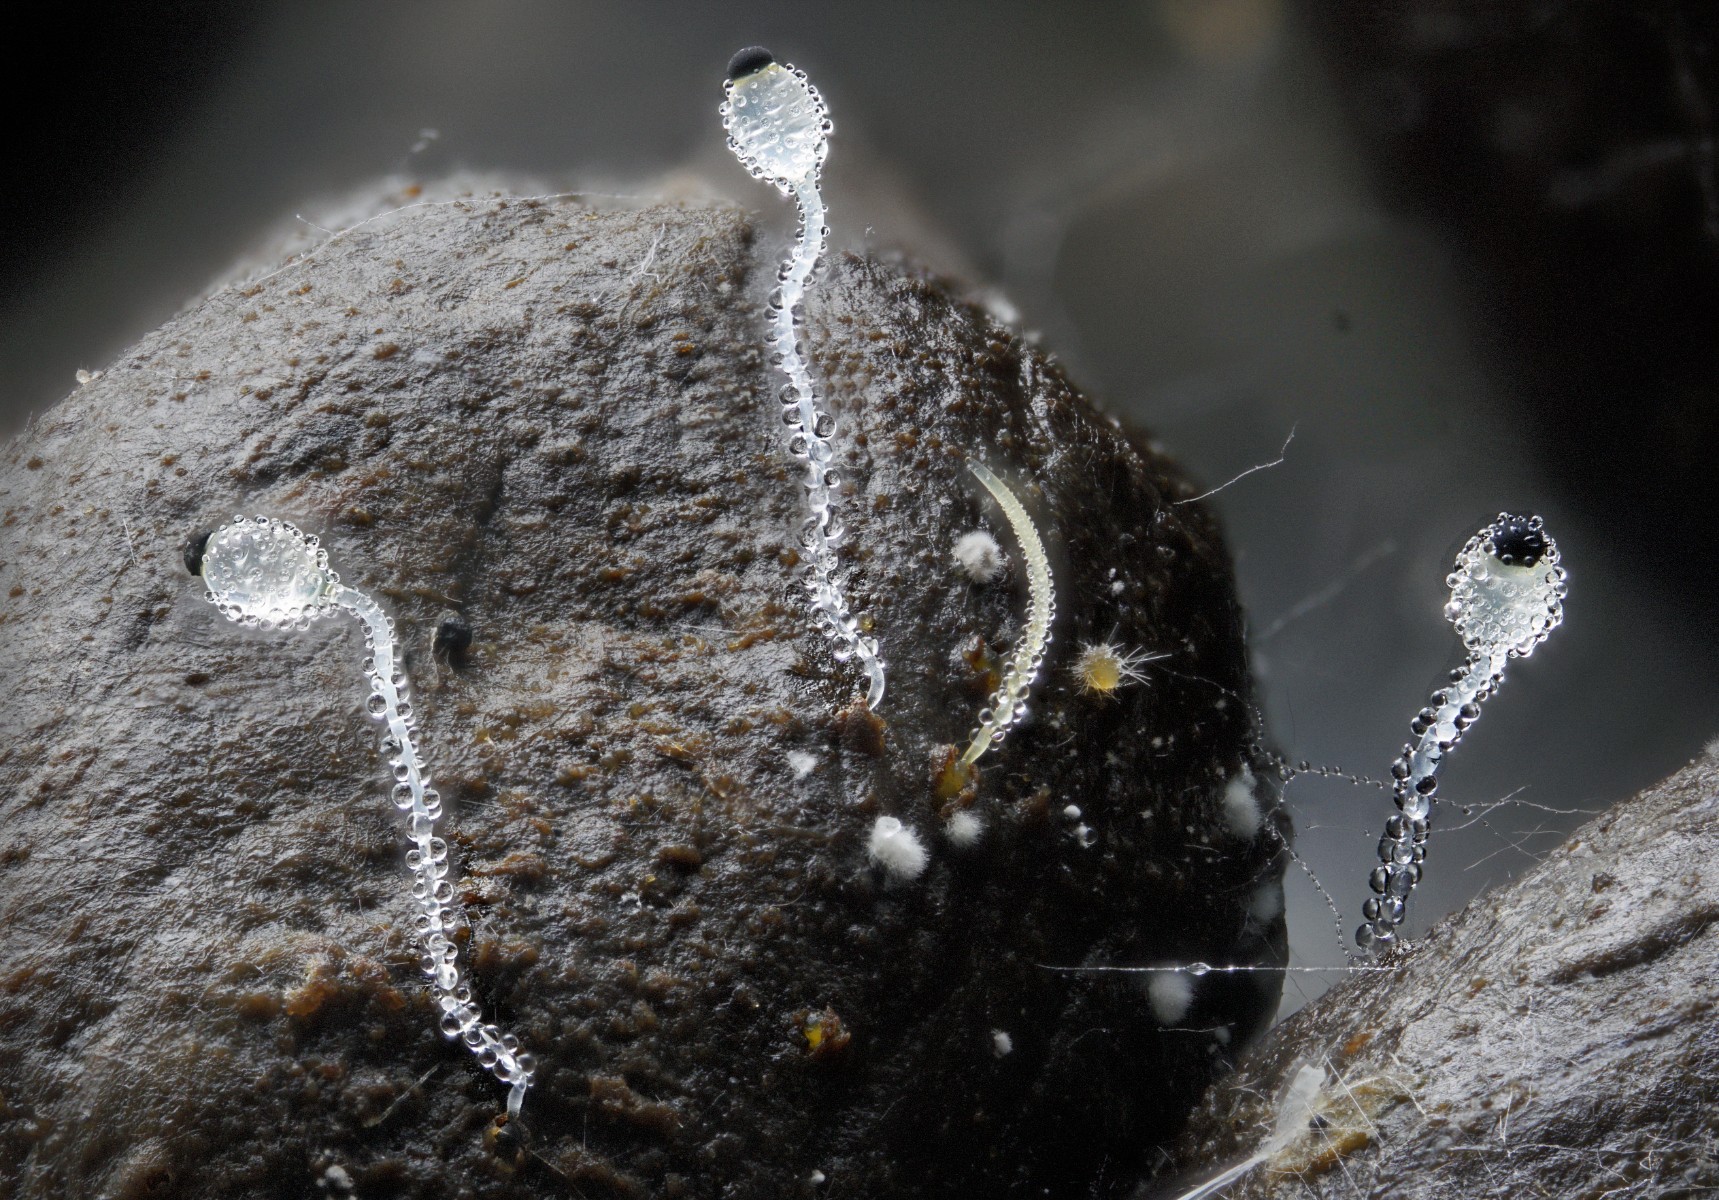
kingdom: Fungi
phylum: Mucoromycota
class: Mucoromycetes
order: Mucorales
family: Pilobolaceae
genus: Pilobolus
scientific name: Pilobolus
